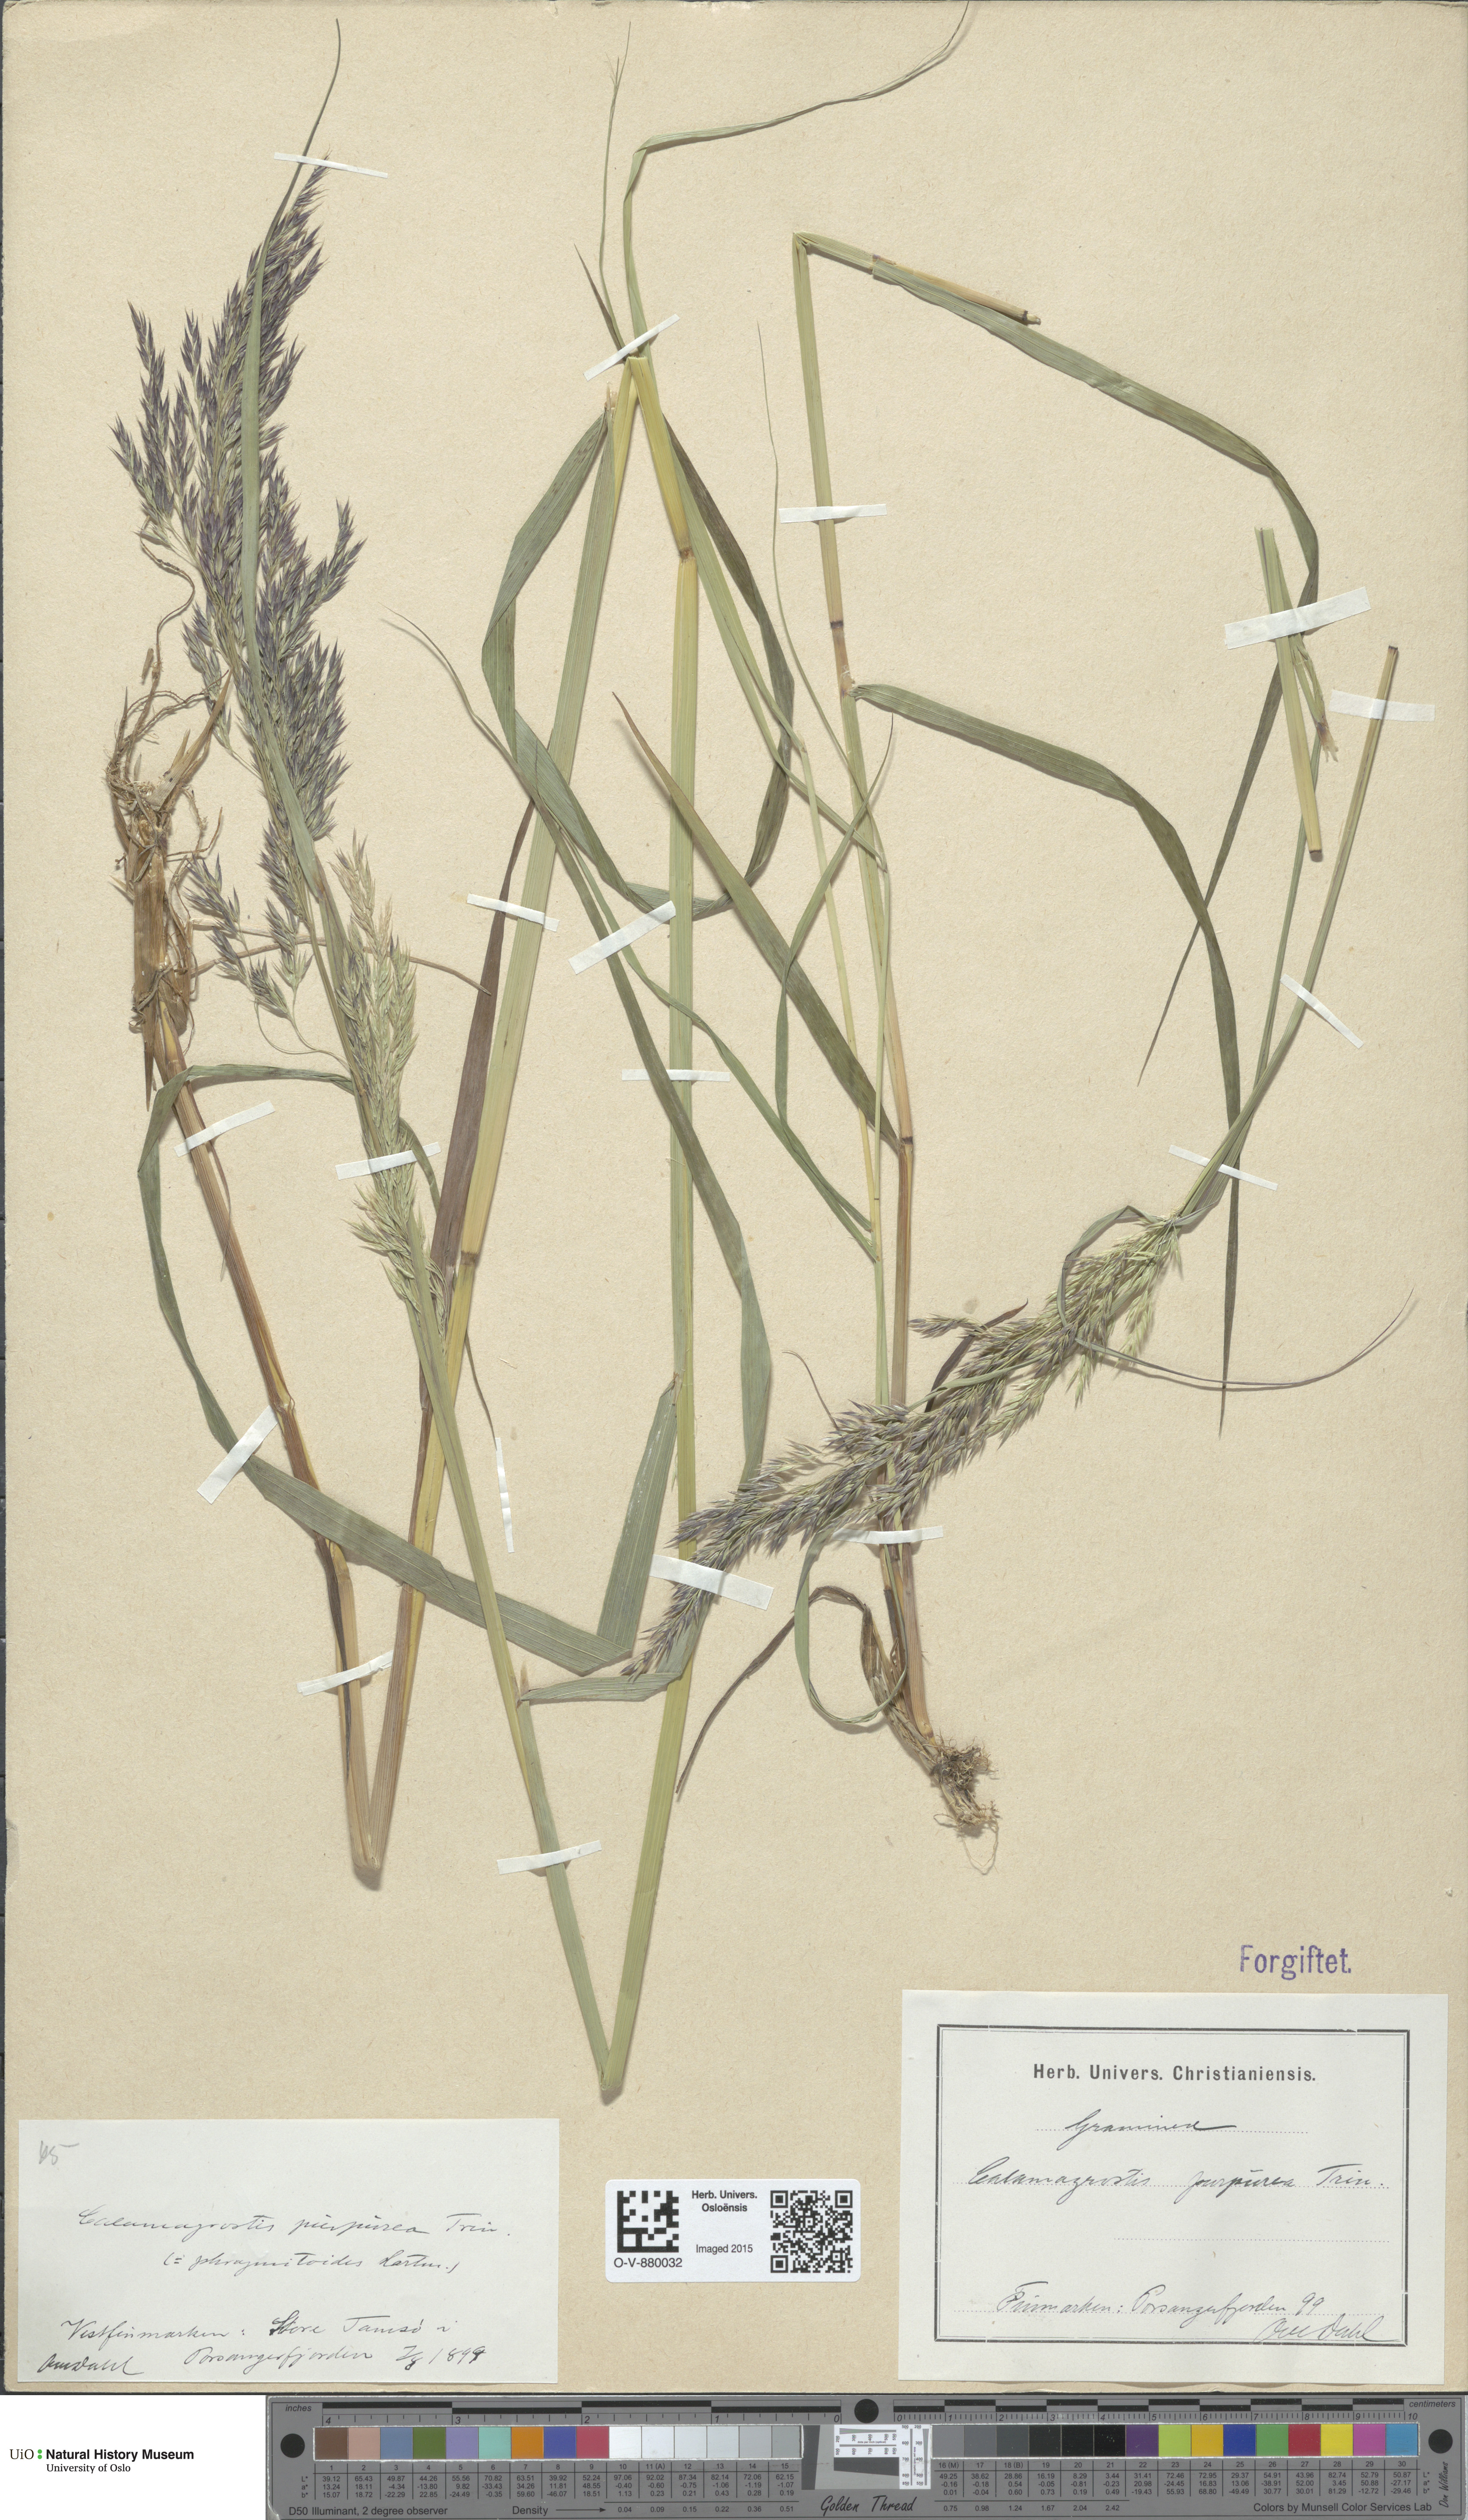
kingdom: Plantae
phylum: Tracheophyta
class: Liliopsida
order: Poales
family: Poaceae
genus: Calamagrostis
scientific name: Calamagrostis purpurea
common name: Scandinavian small-reed
